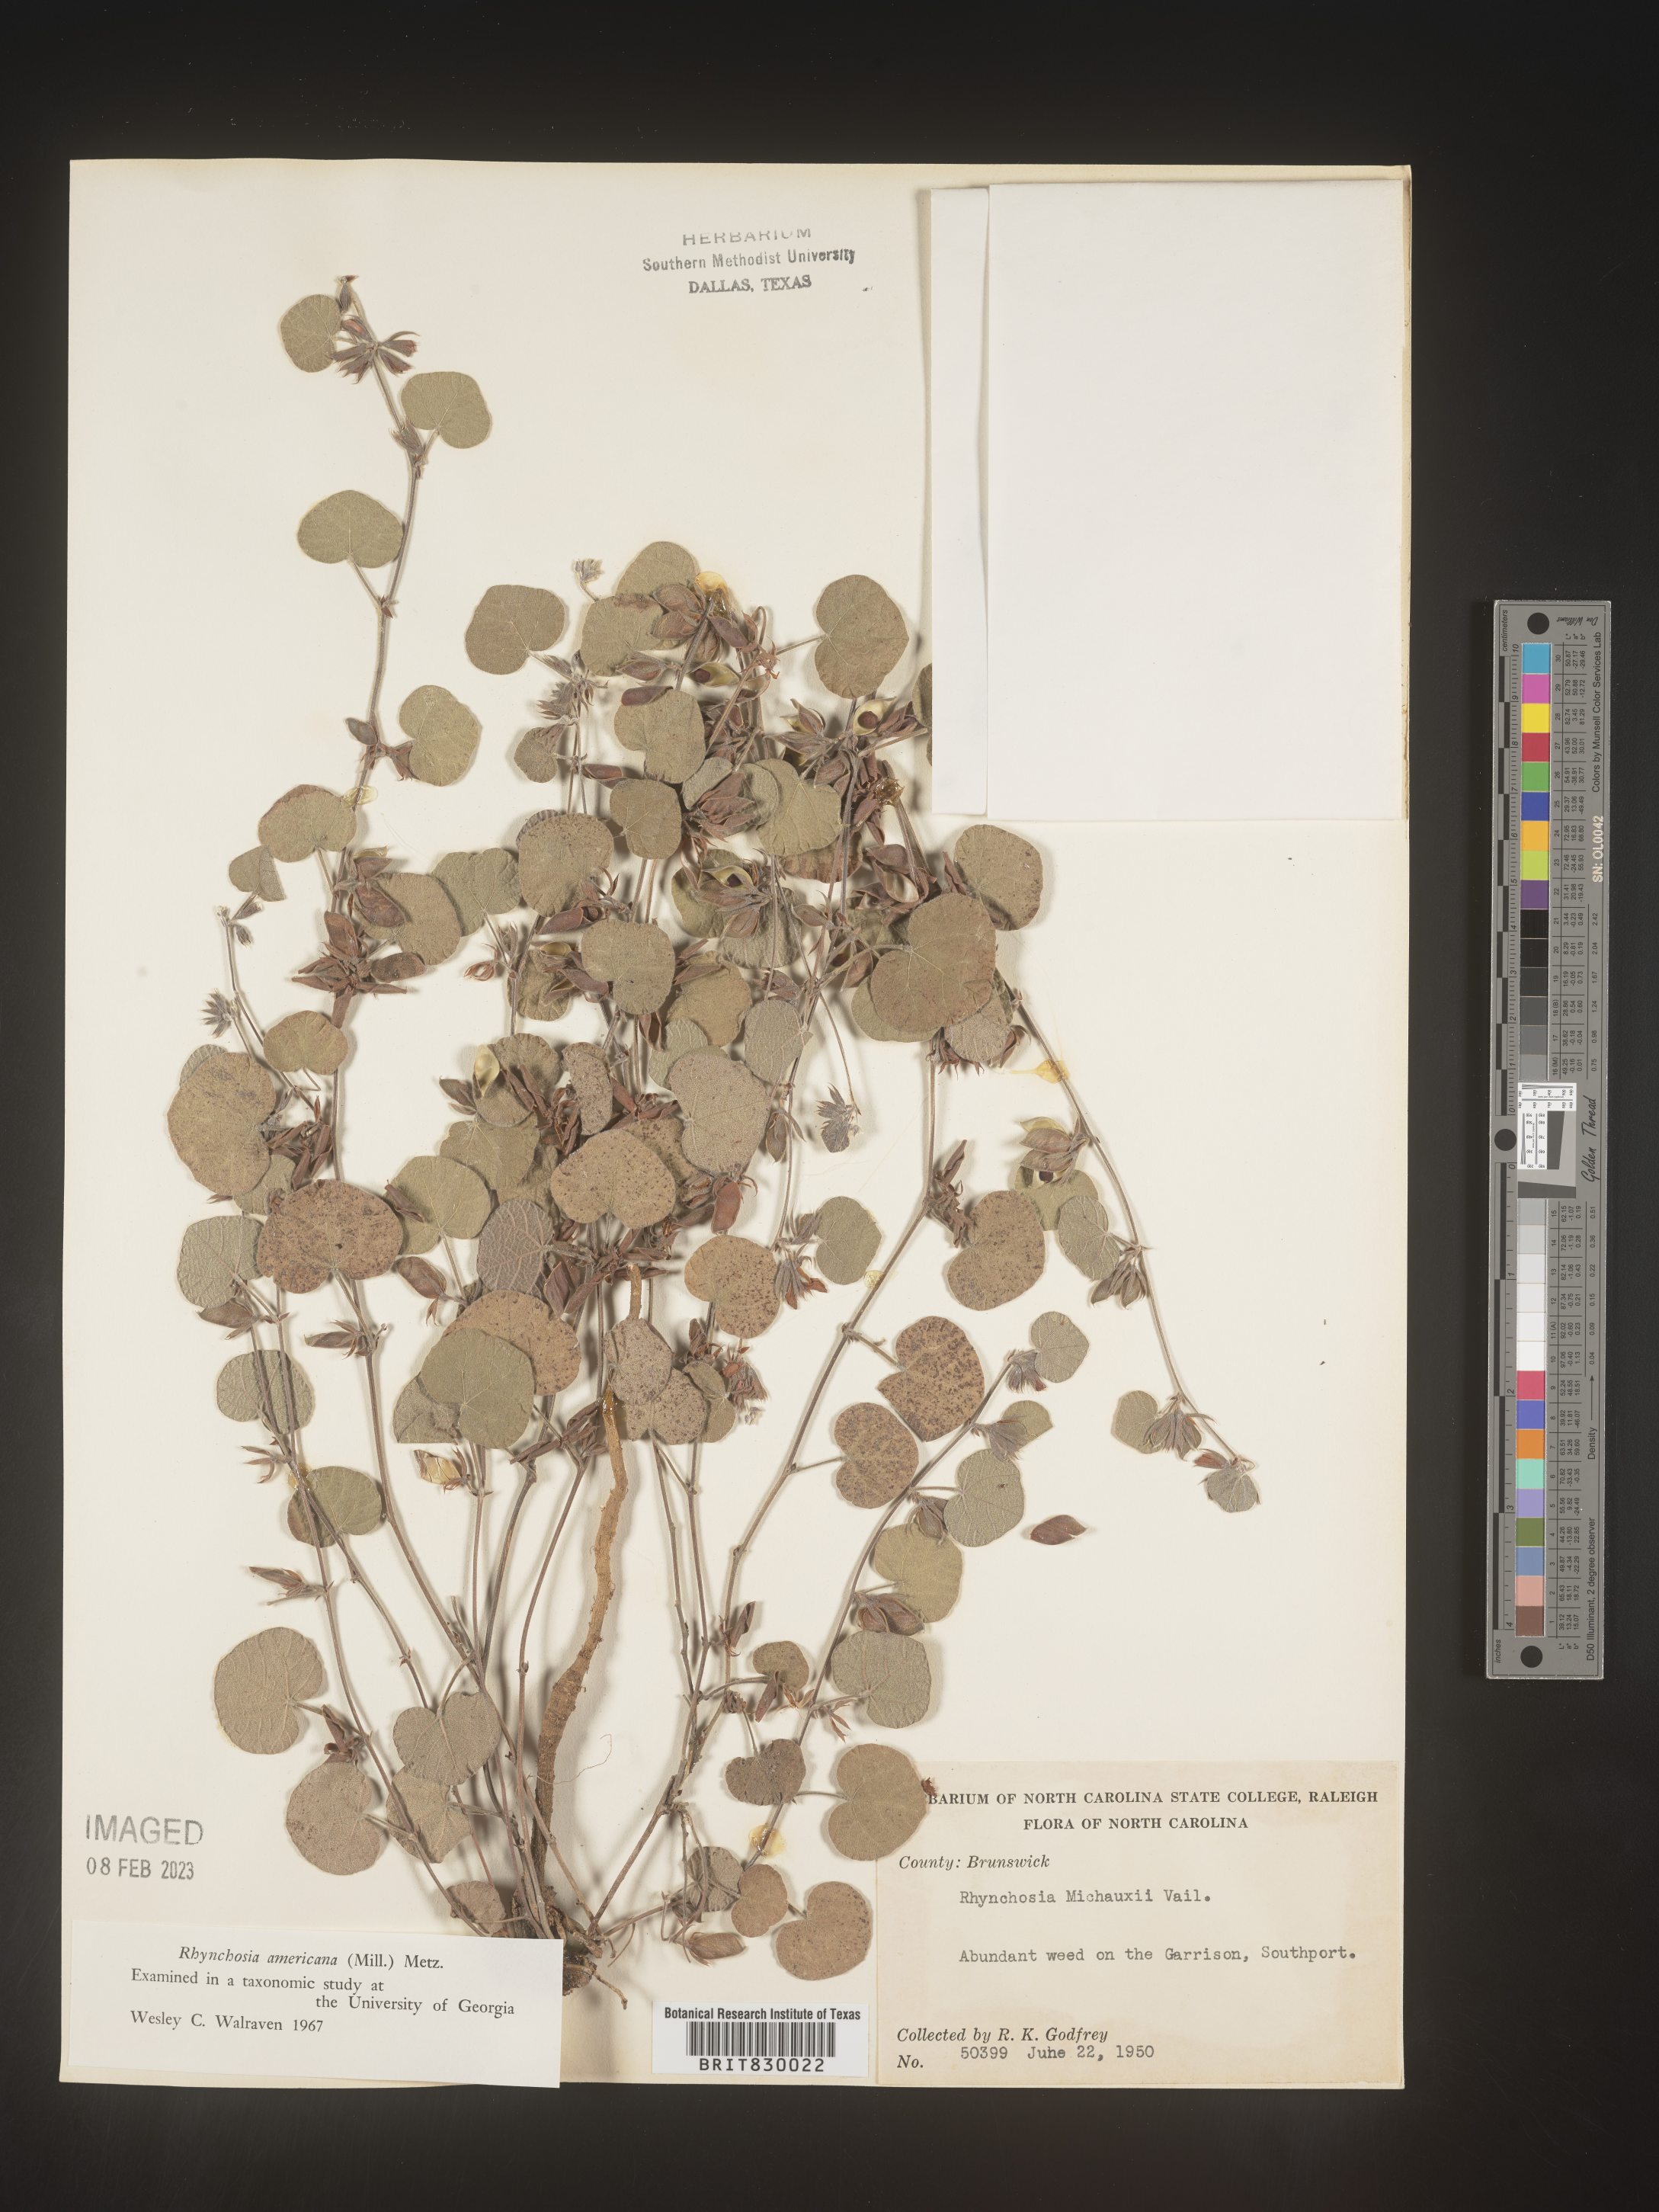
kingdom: Plantae
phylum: Tracheophyta
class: Magnoliopsida
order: Fabales
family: Fabaceae
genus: Rhynchosia
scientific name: Rhynchosia
